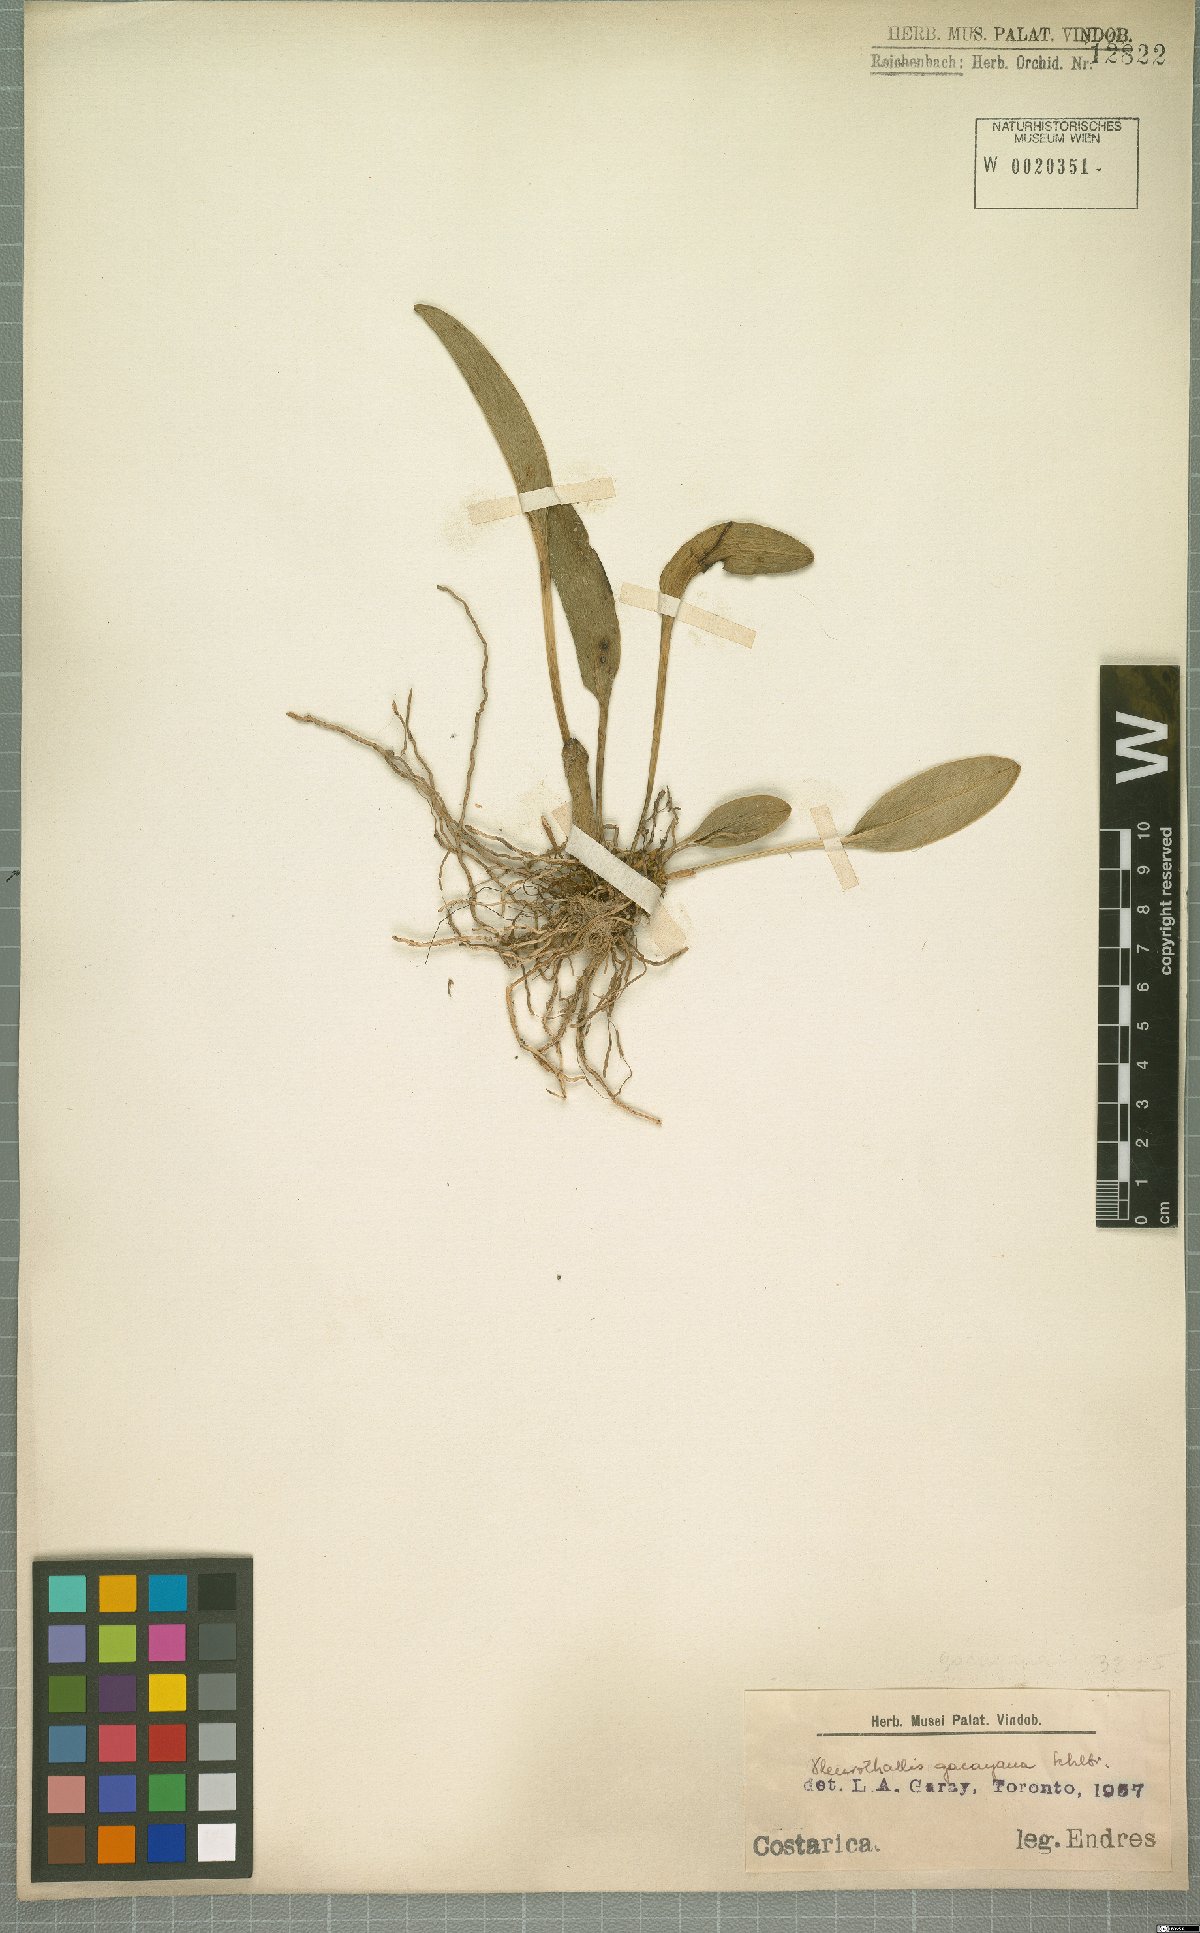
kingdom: Plantae
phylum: Tracheophyta
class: Liliopsida
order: Asparagales
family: Orchidaceae
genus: Pleurothallis
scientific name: Pleurothallis
